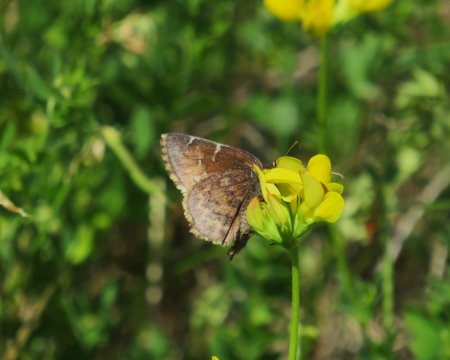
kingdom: Animalia
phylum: Arthropoda
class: Insecta
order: Lepidoptera
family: Hesperiidae
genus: Autochton
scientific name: Autochton
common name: Northern Cloudywing
